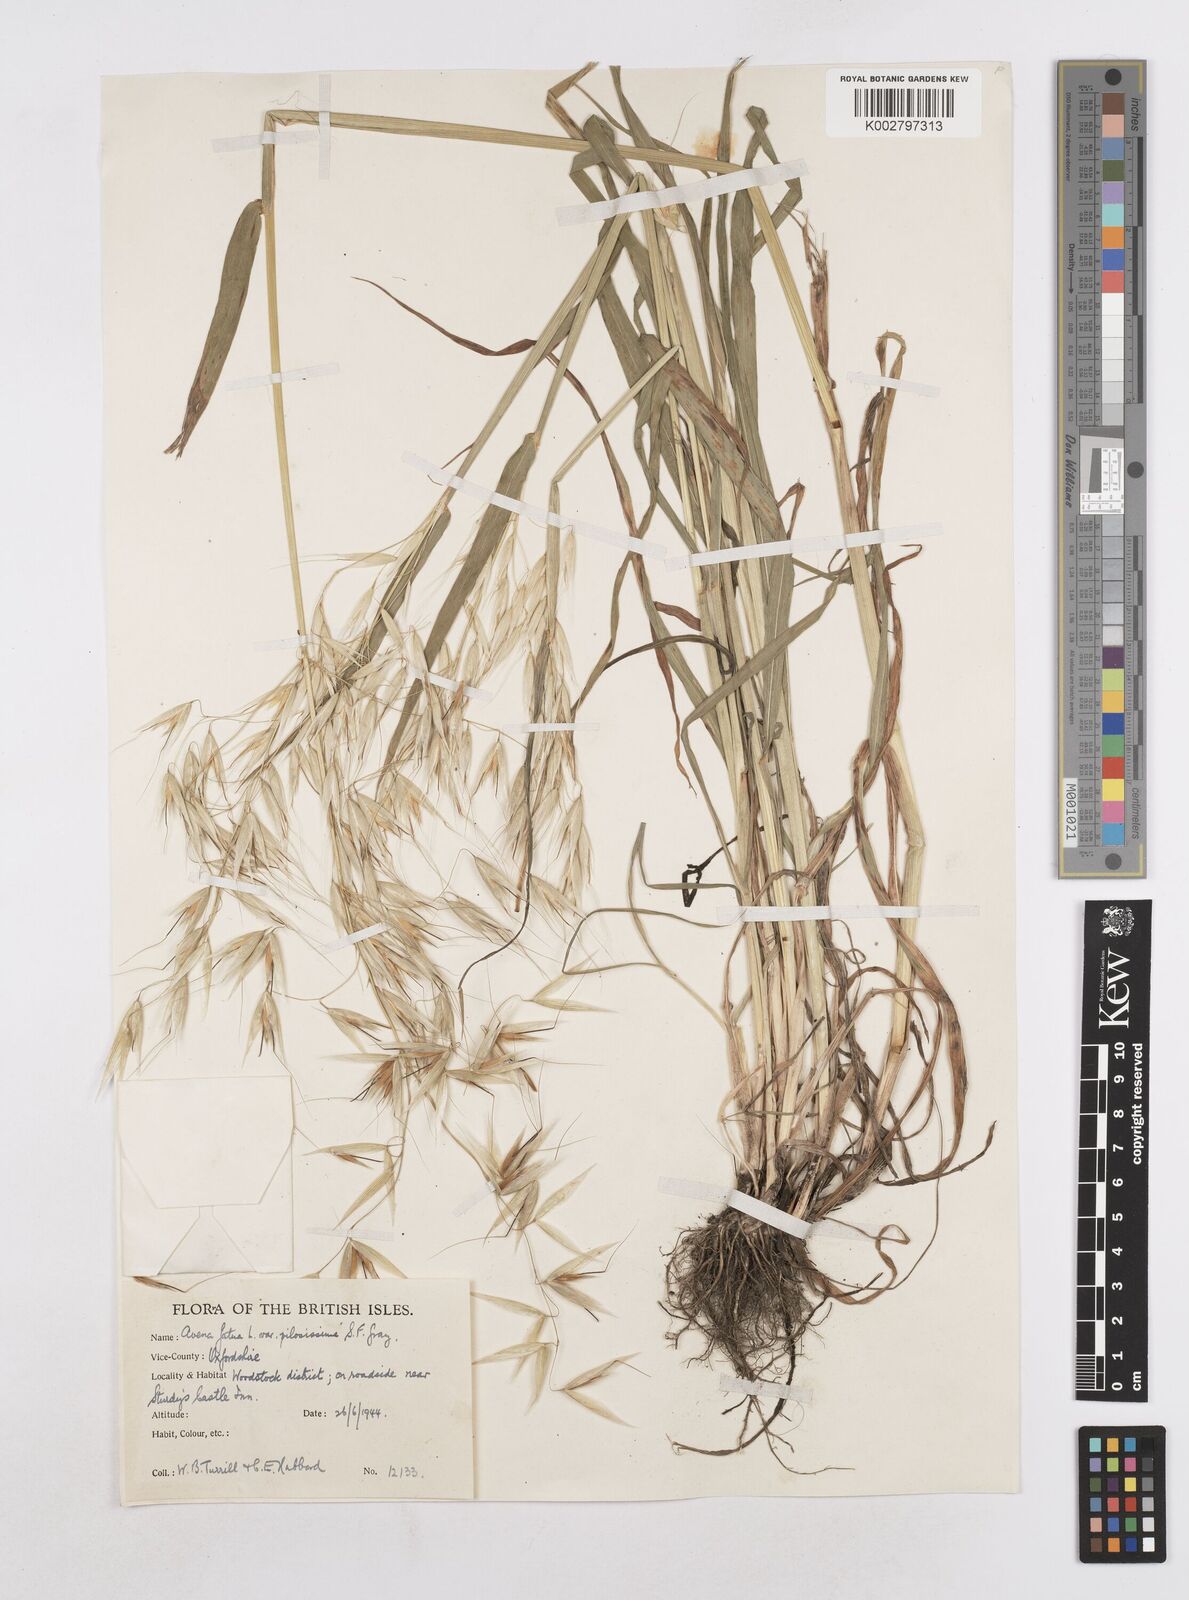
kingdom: Plantae
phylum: Tracheophyta
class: Liliopsida
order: Poales
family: Poaceae
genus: Avena
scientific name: Avena fatua
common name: Wild oat
